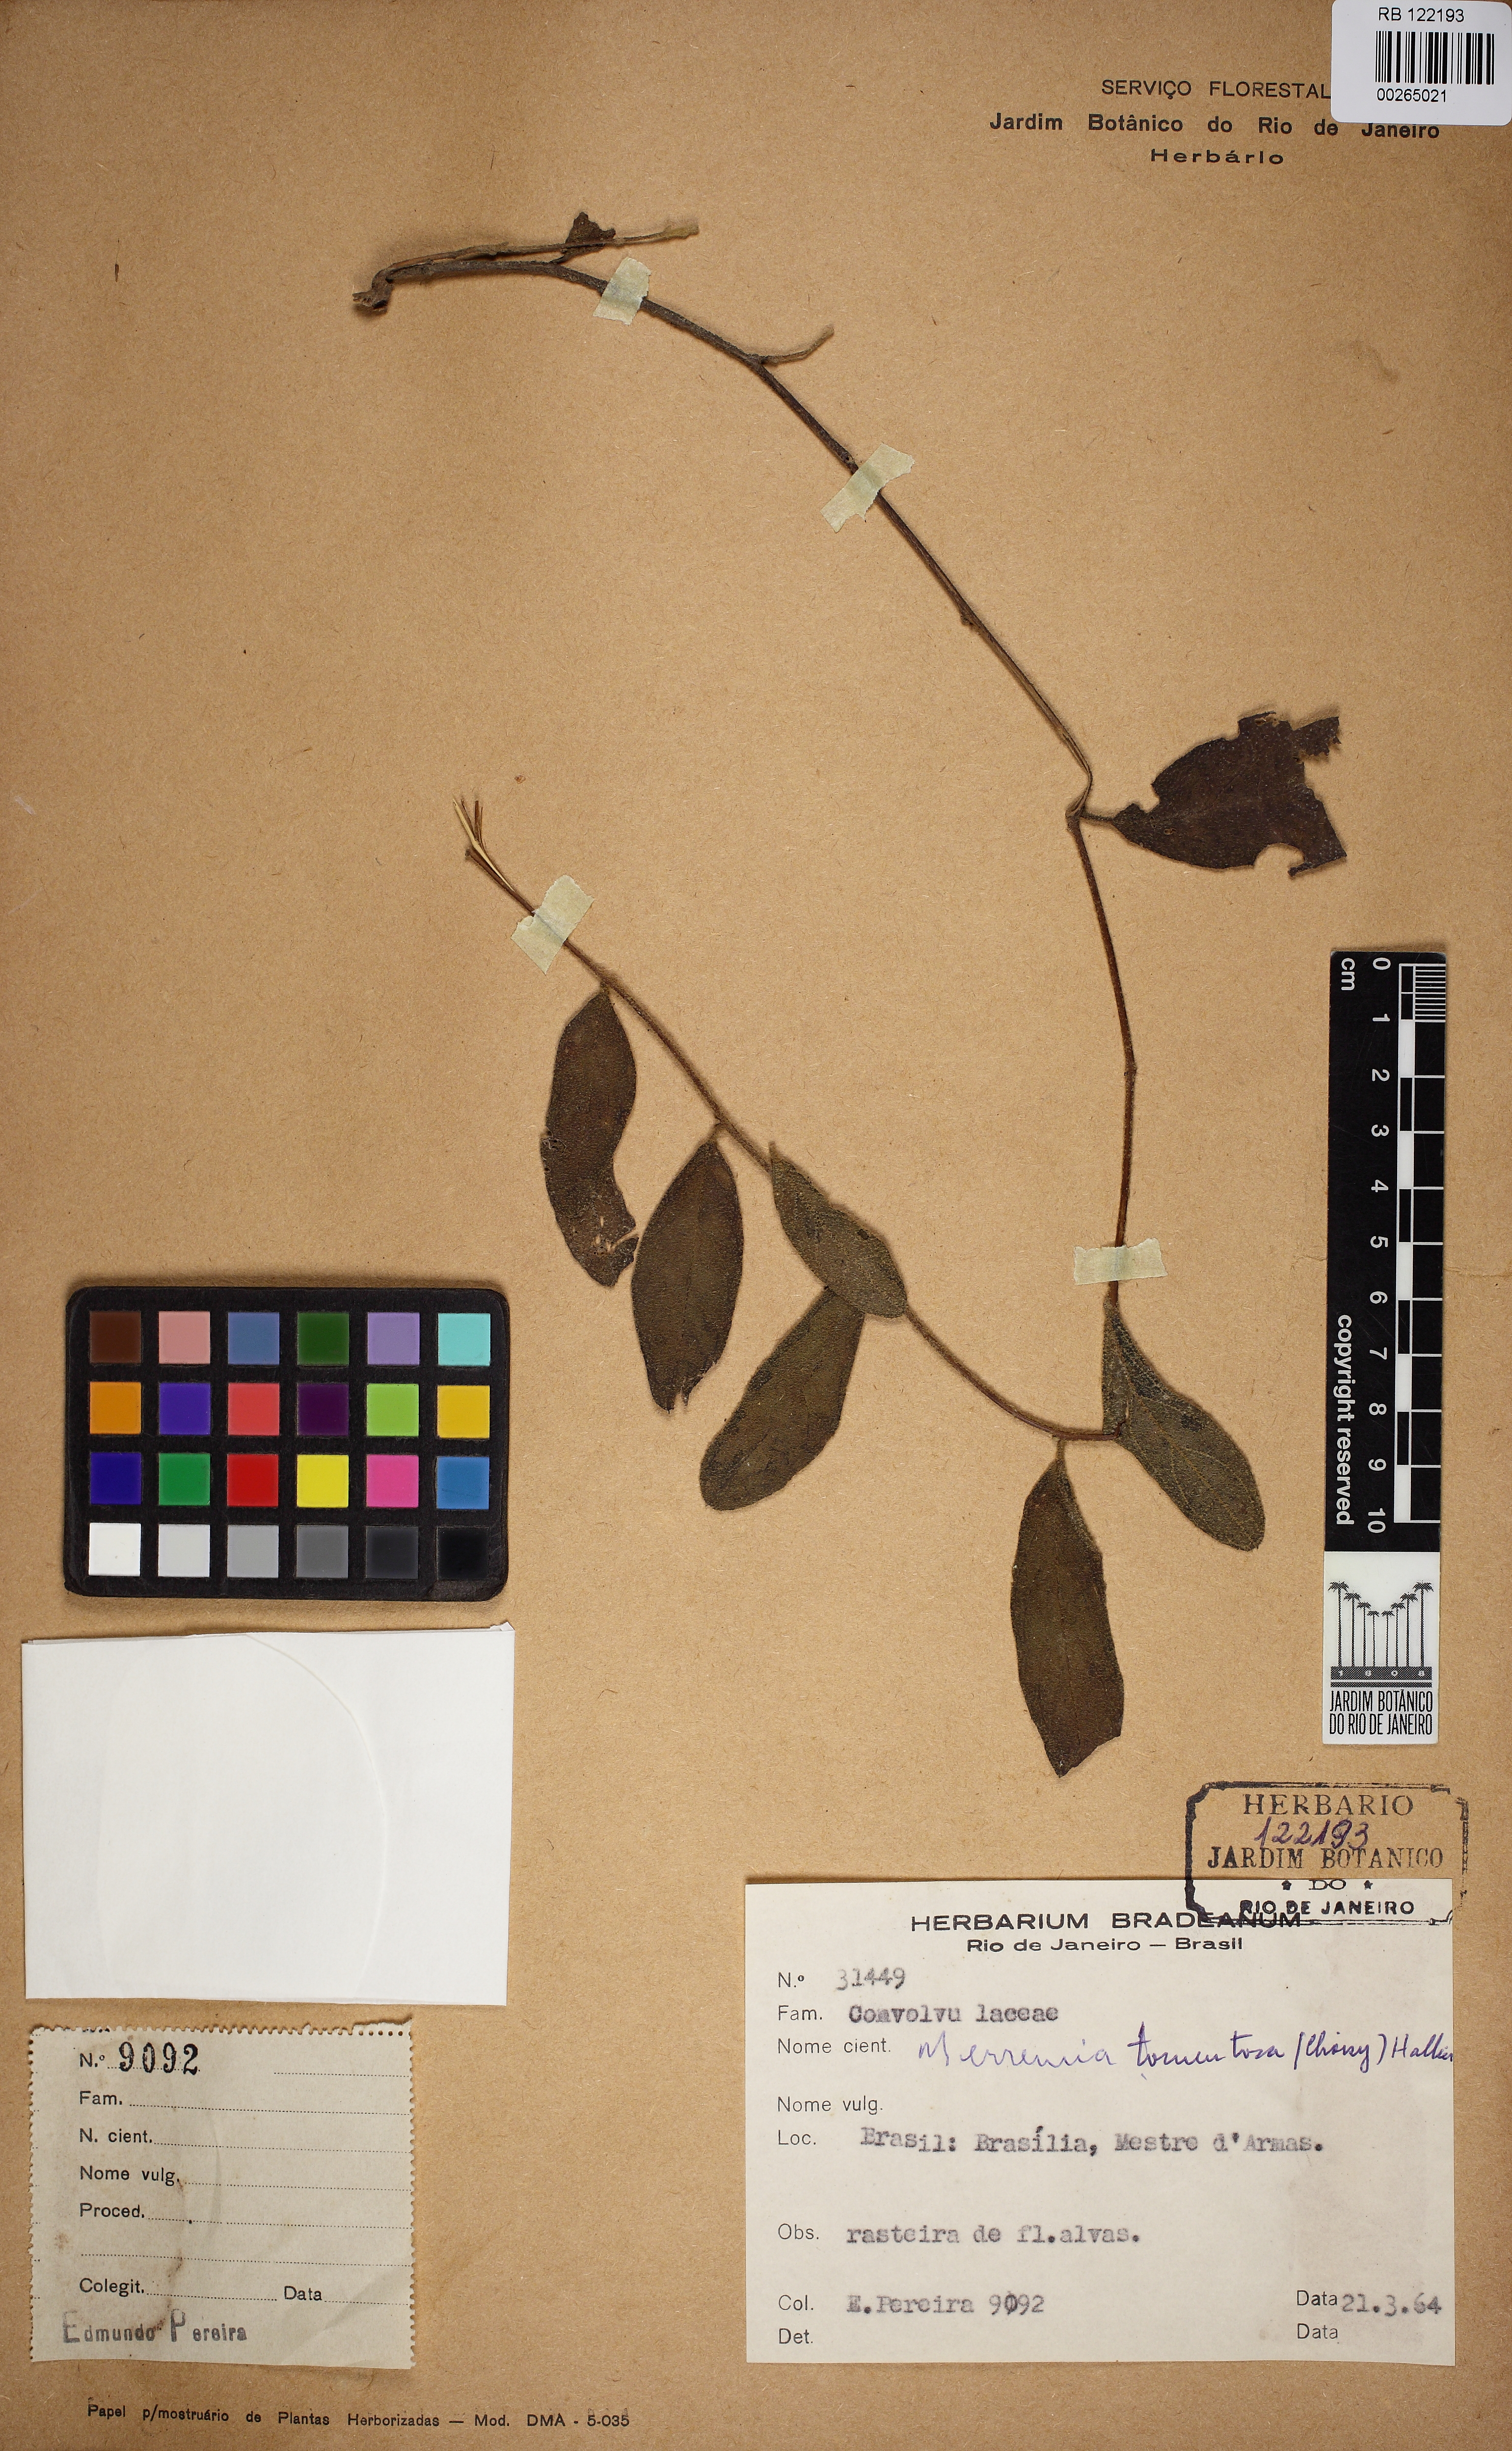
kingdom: Plantae
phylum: Tracheophyta
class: Magnoliopsida
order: Solanales
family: Convolvulaceae
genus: Distimake
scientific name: Distimake maragniensis
